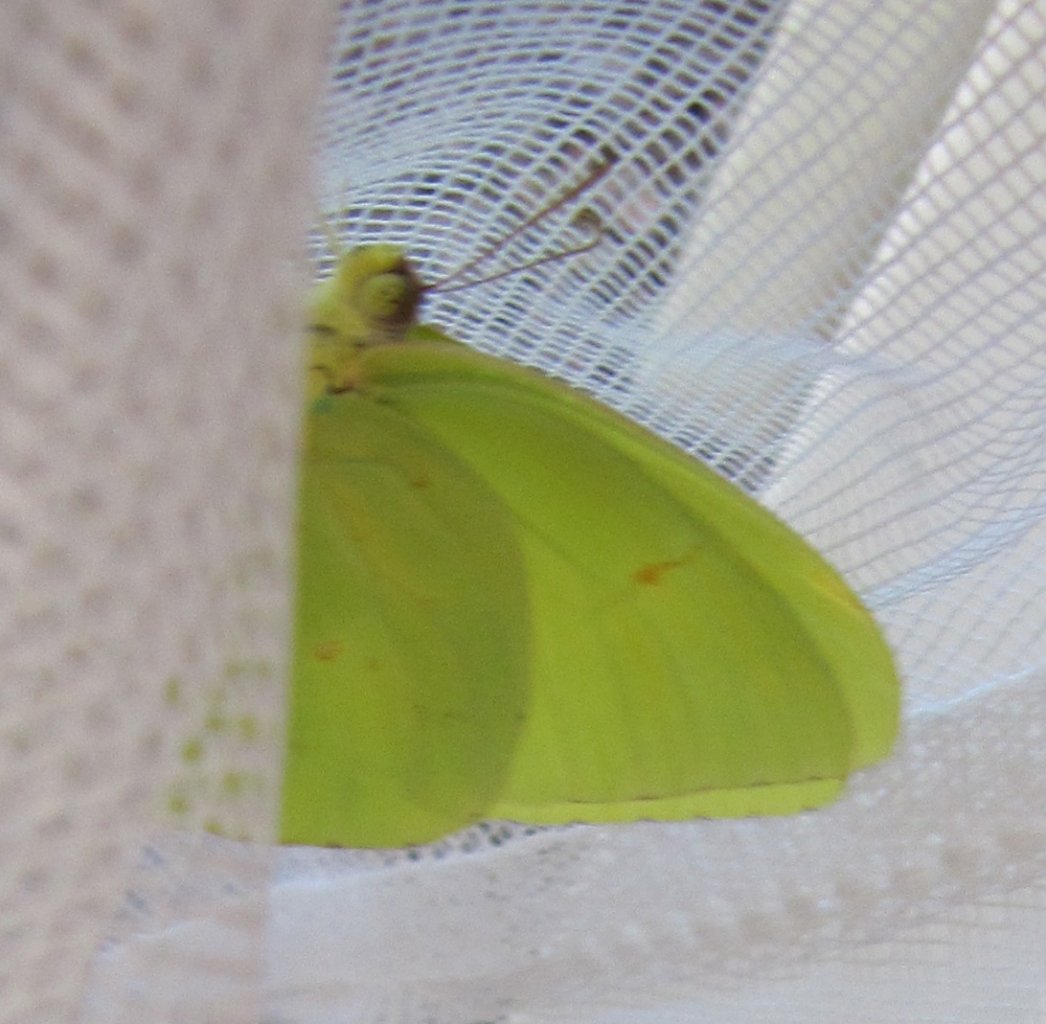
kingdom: Animalia
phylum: Arthropoda
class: Insecta
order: Lepidoptera
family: Pieridae
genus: Phoebis
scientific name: Phoebis sennae
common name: Cloudless Sulphur
